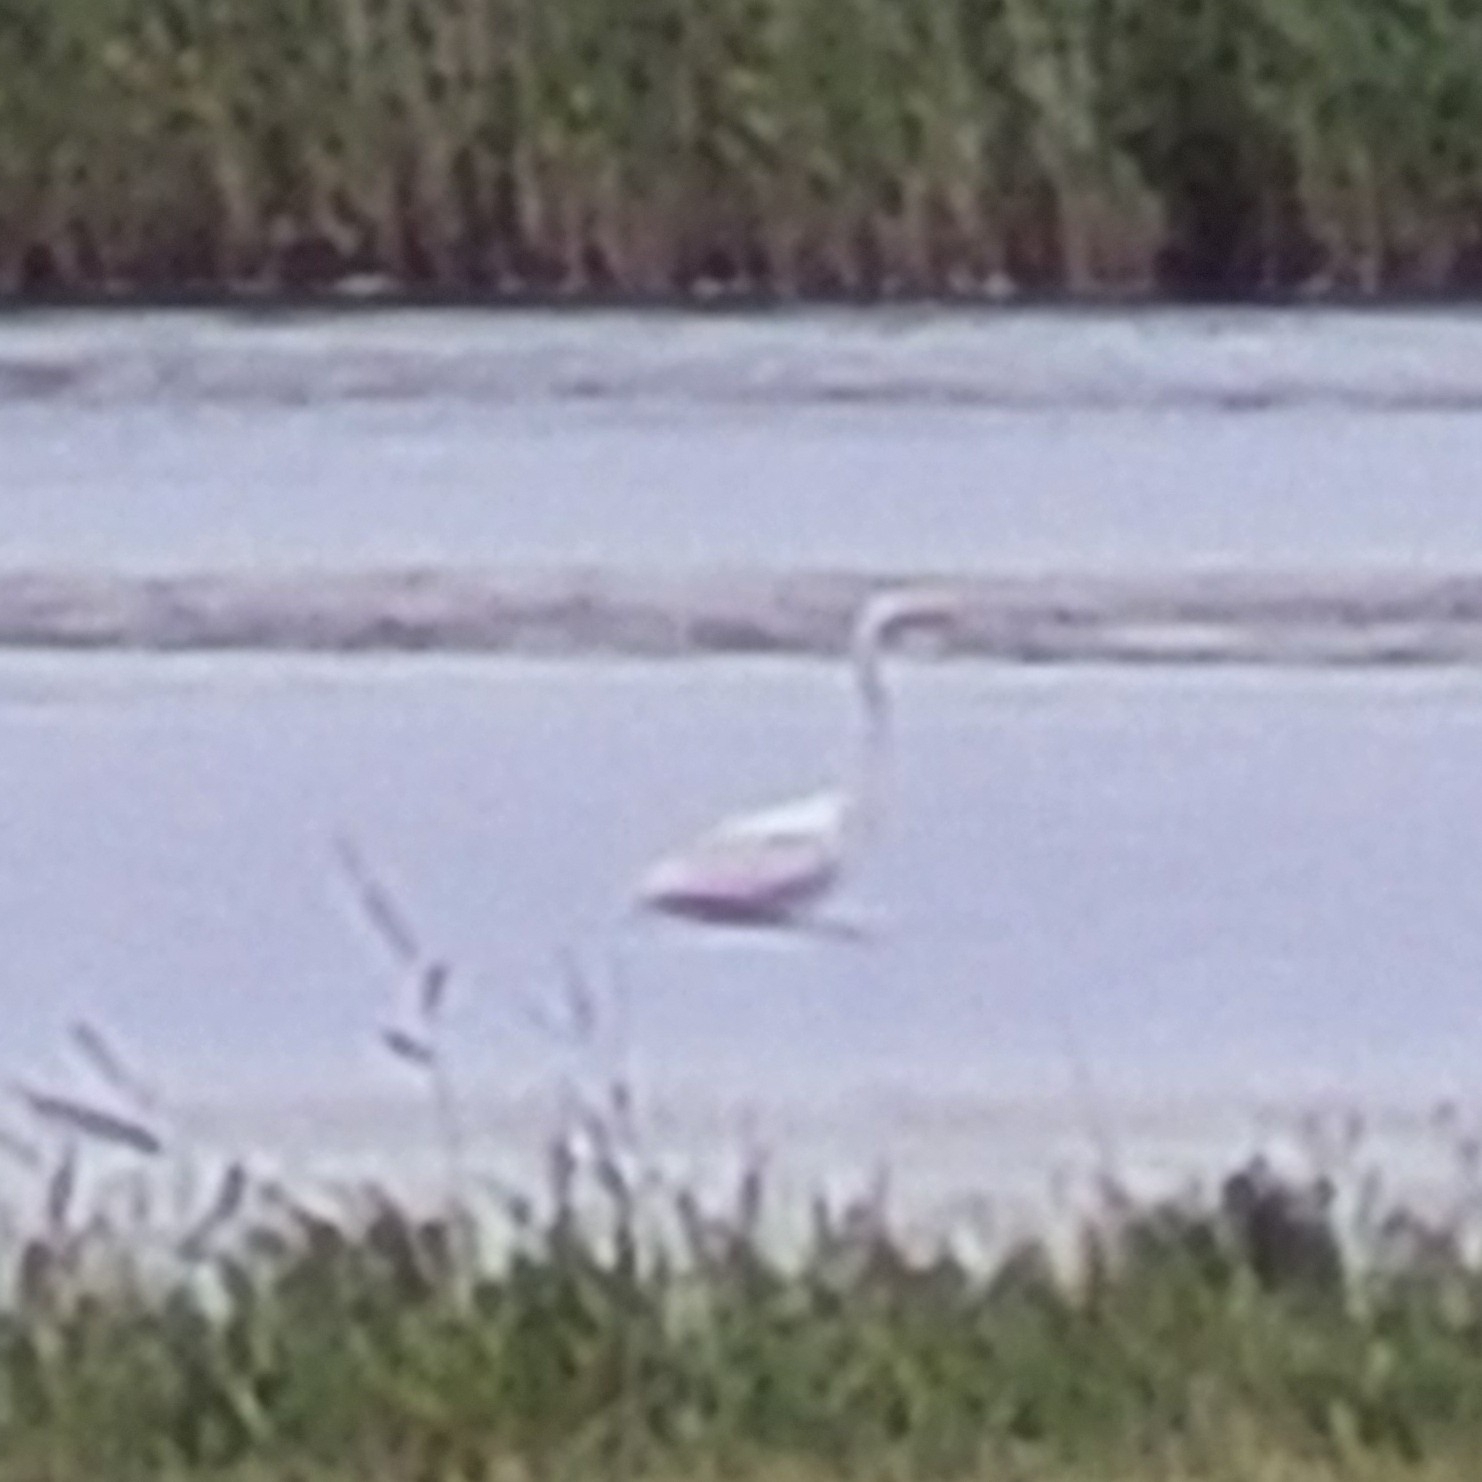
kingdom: Animalia
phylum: Chordata
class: Aves
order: Pelecaniformes
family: Ardeidae
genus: Ardea
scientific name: Ardea alba
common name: Sølvhejre
